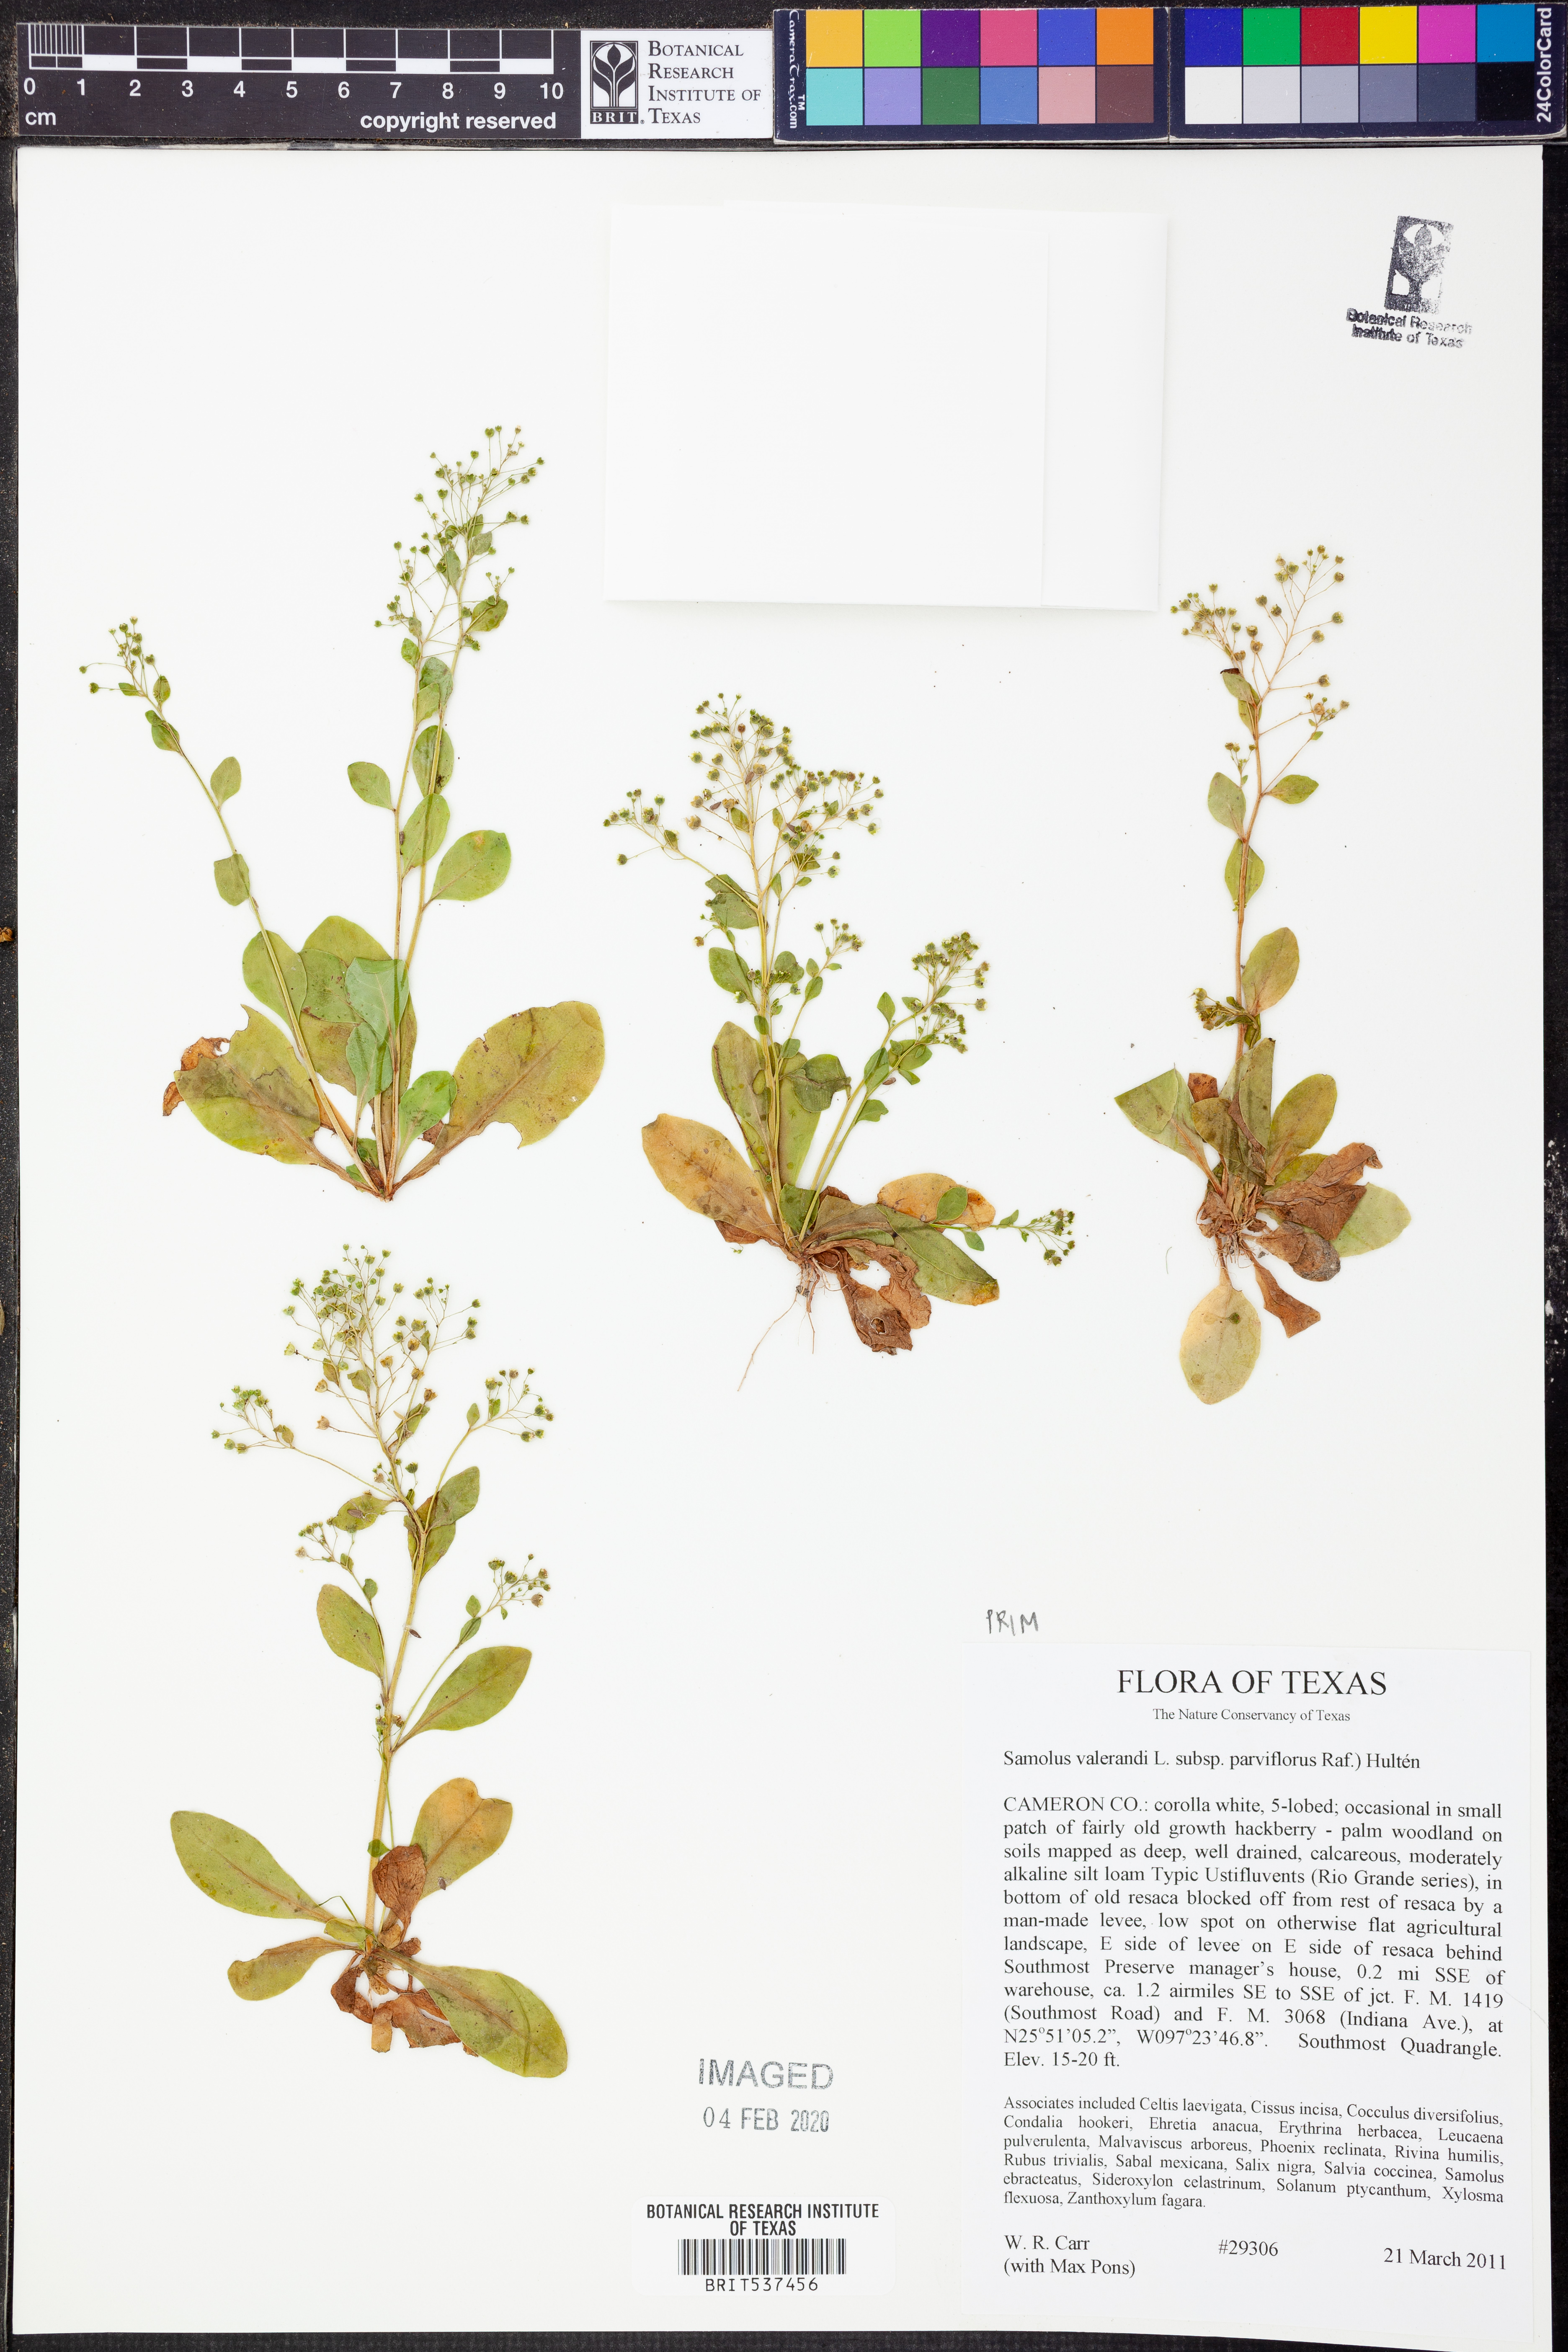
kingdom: Plantae
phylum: Tracheophyta
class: Magnoliopsida
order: Ericales
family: Primulaceae
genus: Samolus
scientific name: Samolus parviflorus
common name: False water pimpernel
